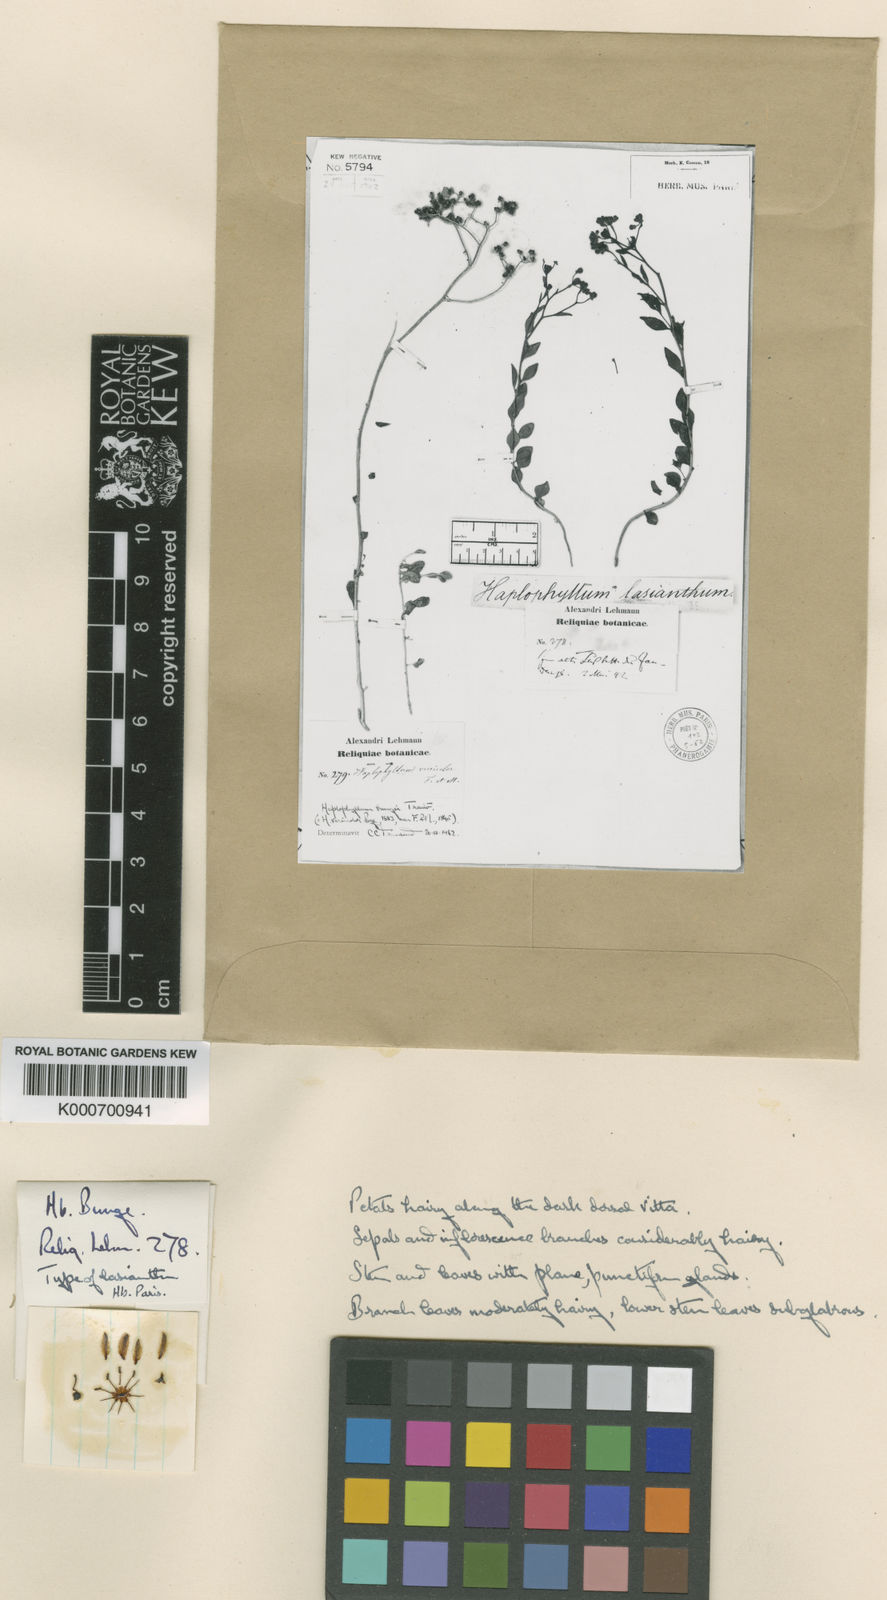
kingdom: Plantae
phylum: Tracheophyta
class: Magnoliopsida
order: Sapindales
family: Rutaceae
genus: Haplophyllum
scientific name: Haplophyllum versicolor
